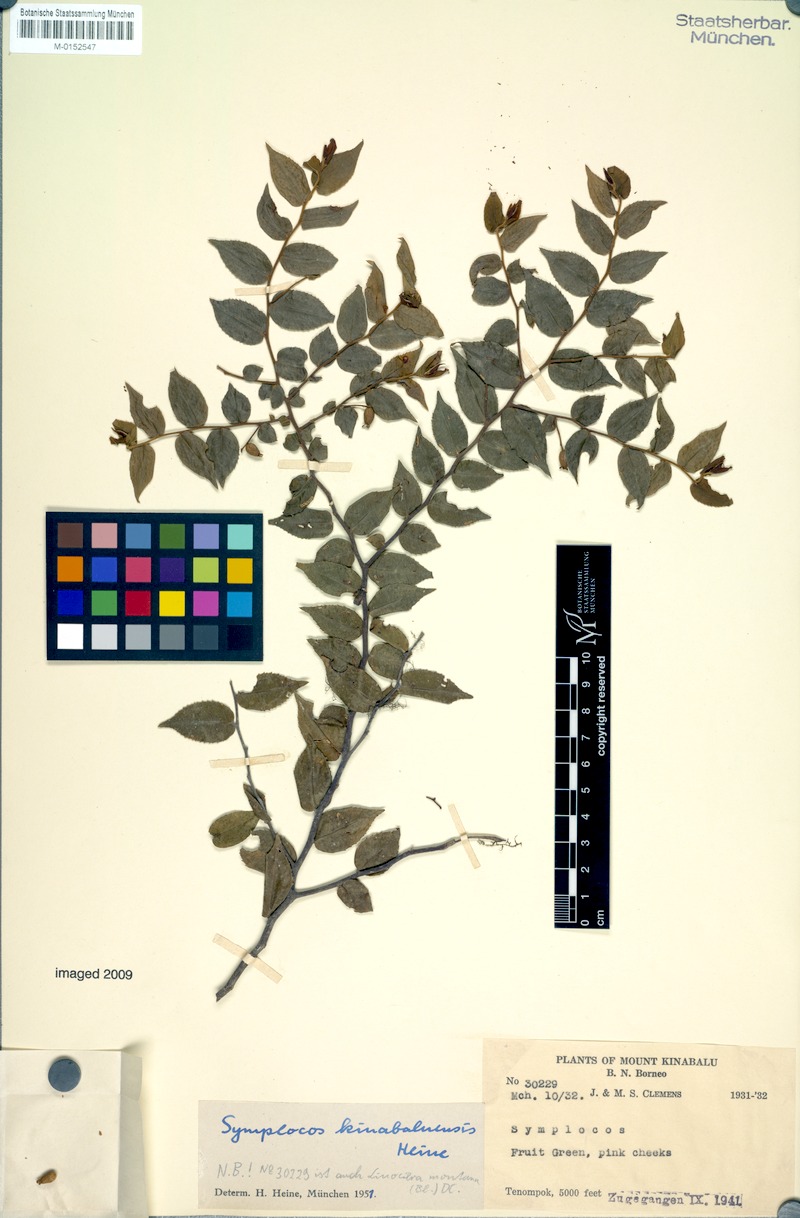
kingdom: Plantae
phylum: Tracheophyta
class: Magnoliopsida
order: Ericales
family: Symplocaceae
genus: Symplocos
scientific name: Symplocos laeteviridis
